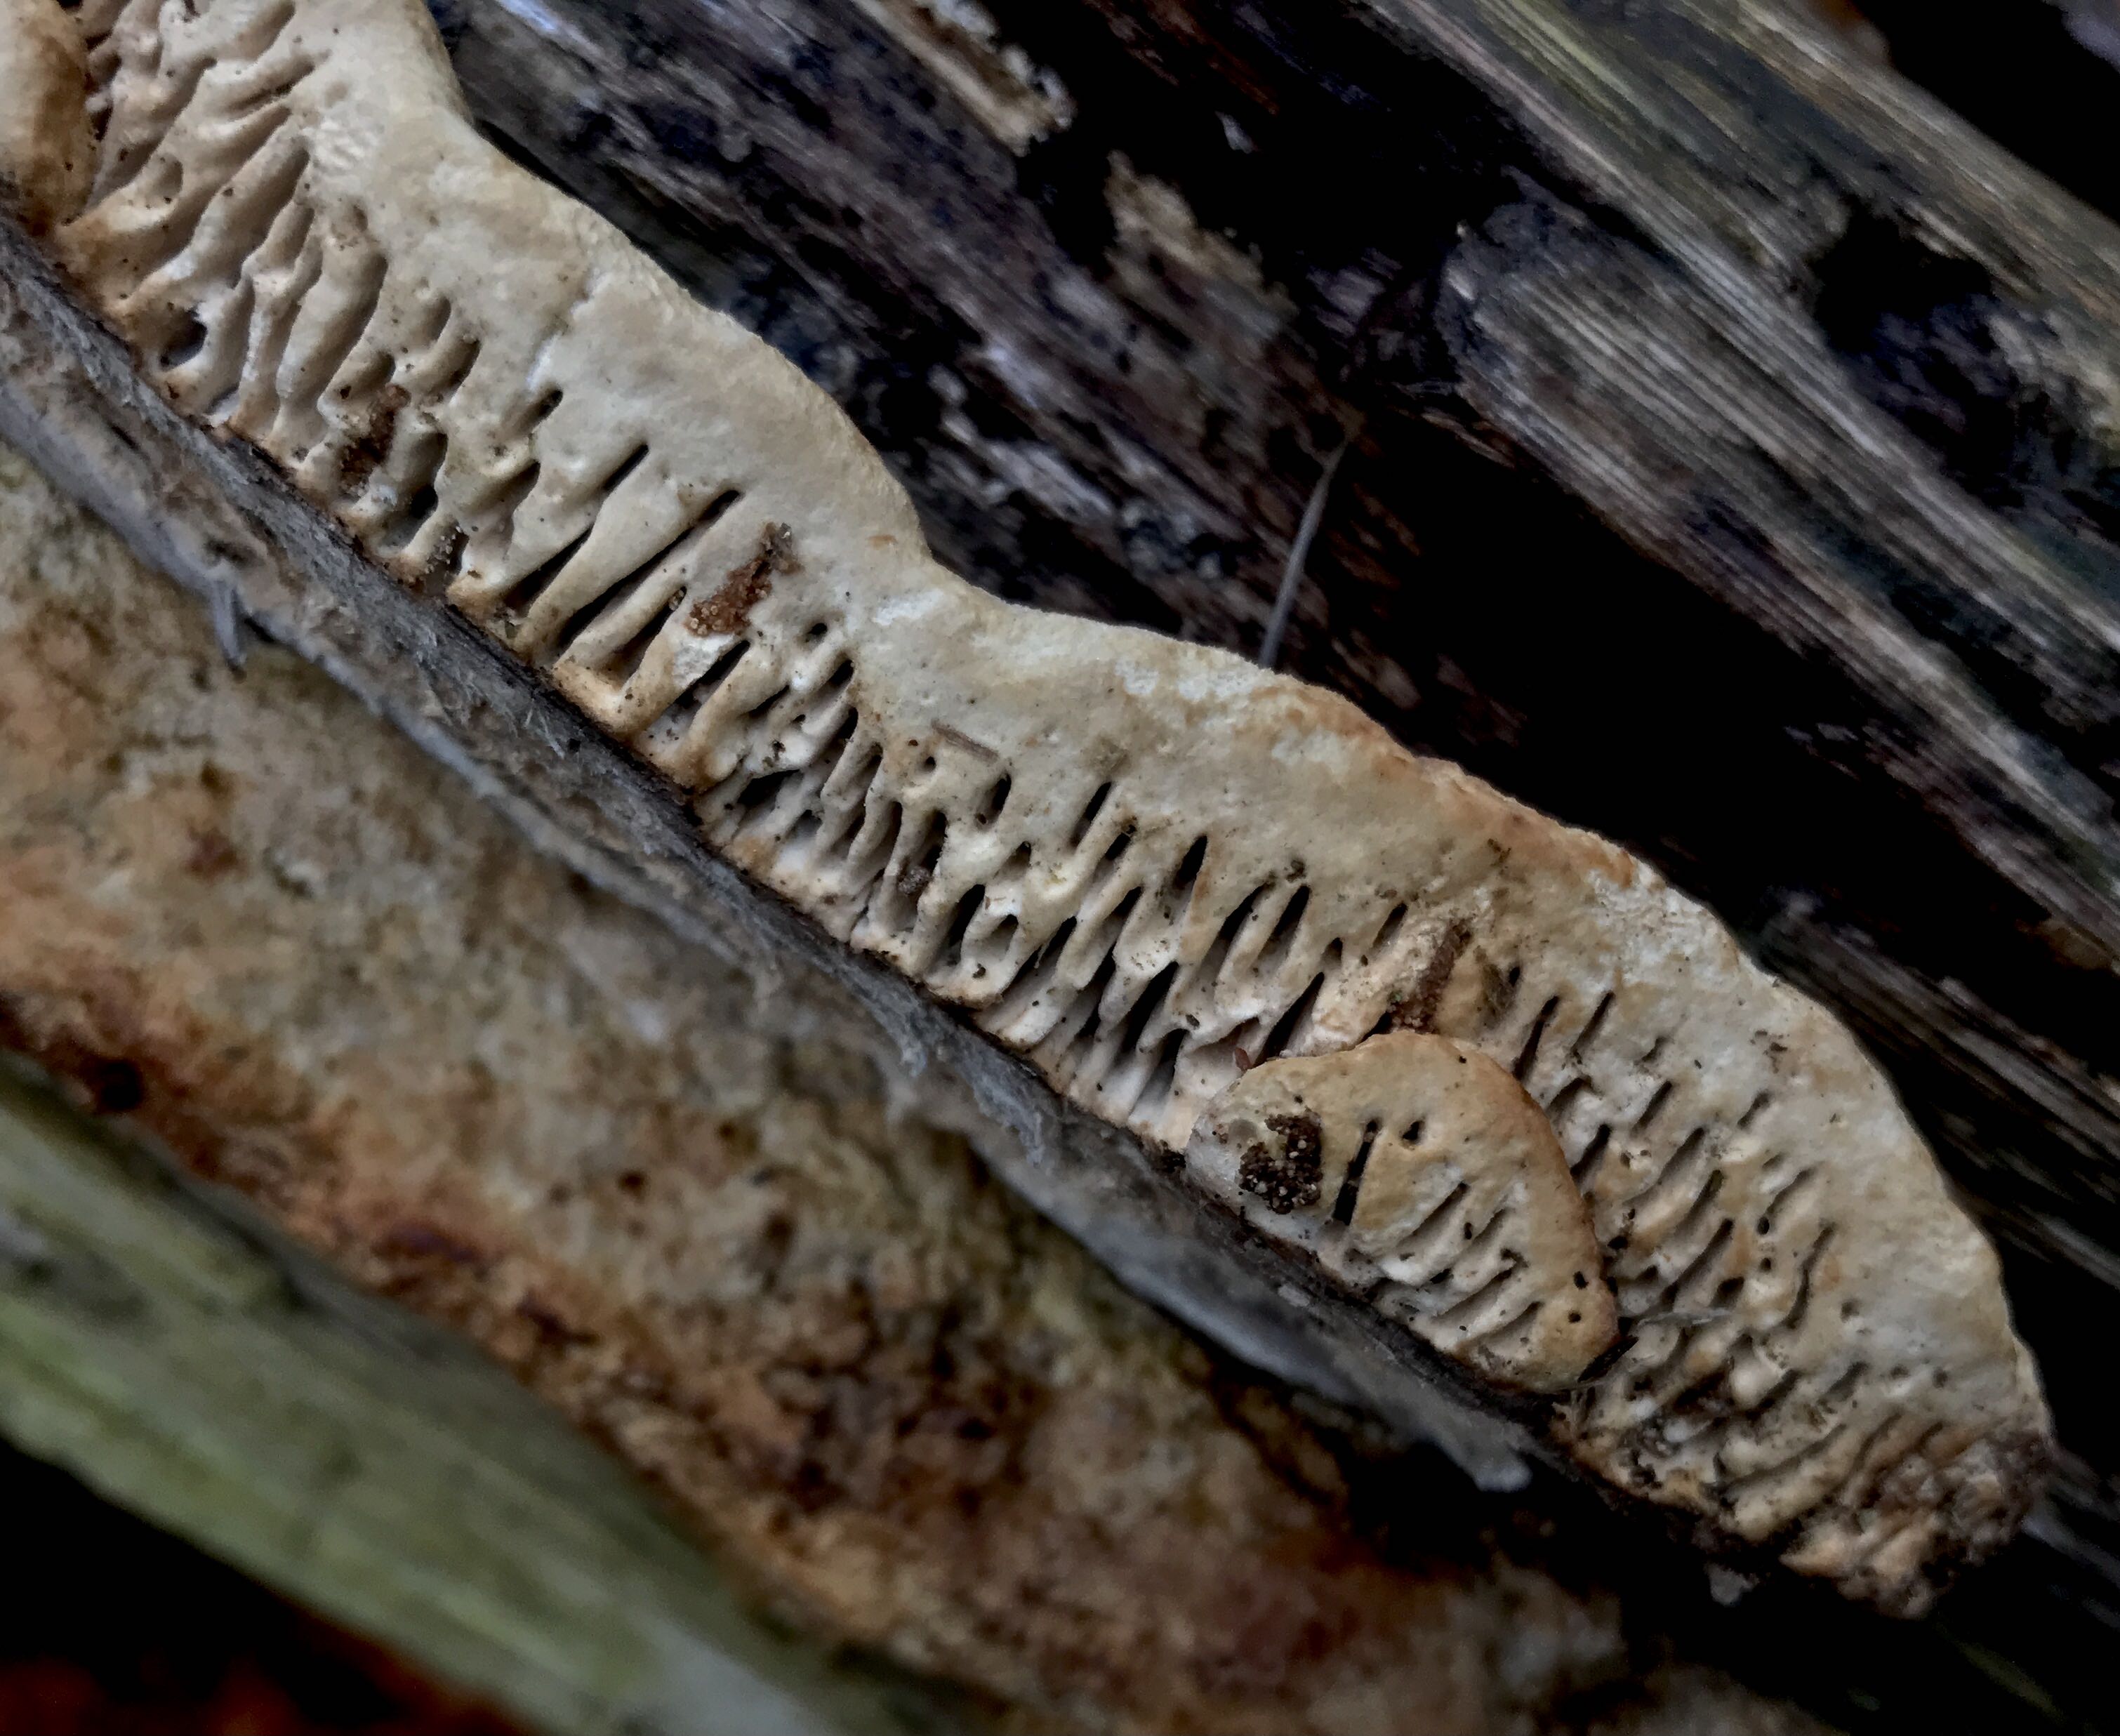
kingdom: Fungi
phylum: Basidiomycota
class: Agaricomycetes
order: Polyporales
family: Fomitopsidaceae
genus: Daedalea
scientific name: Daedalea quercina
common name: ege-labyrintsvamp
